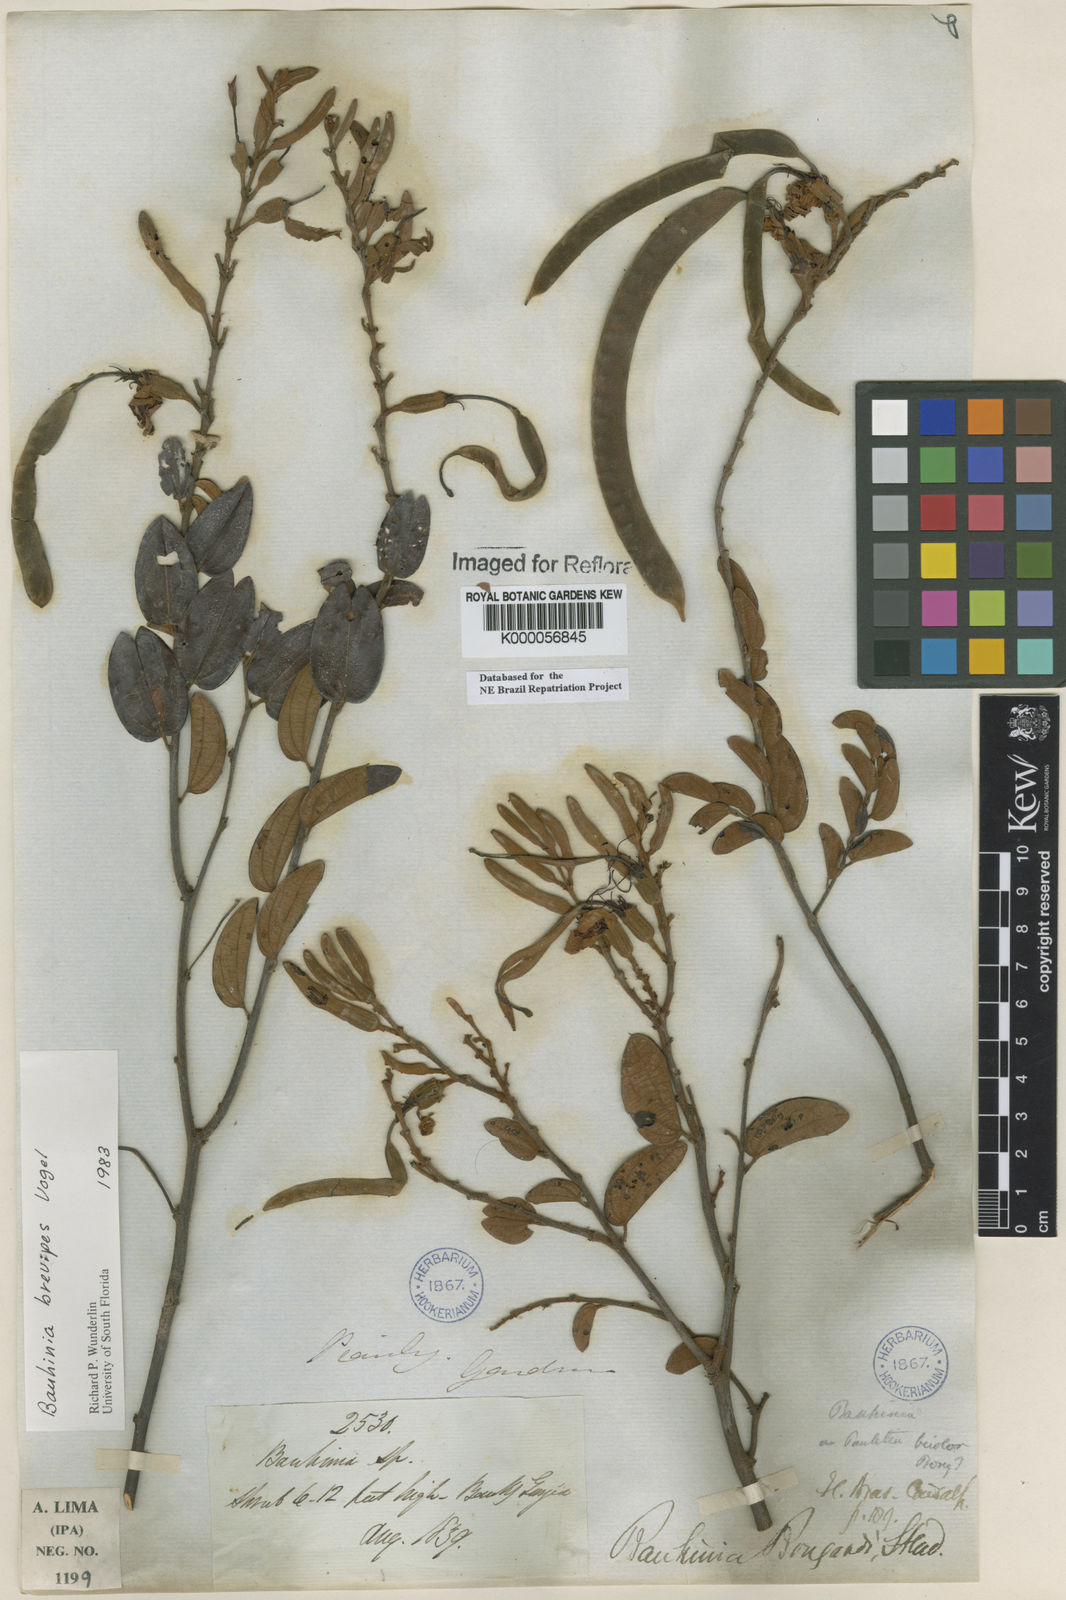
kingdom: Plantae
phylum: Tracheophyta
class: Magnoliopsida
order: Fabales
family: Fabaceae
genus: Bauhinia
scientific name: Bauhinia brevipes
